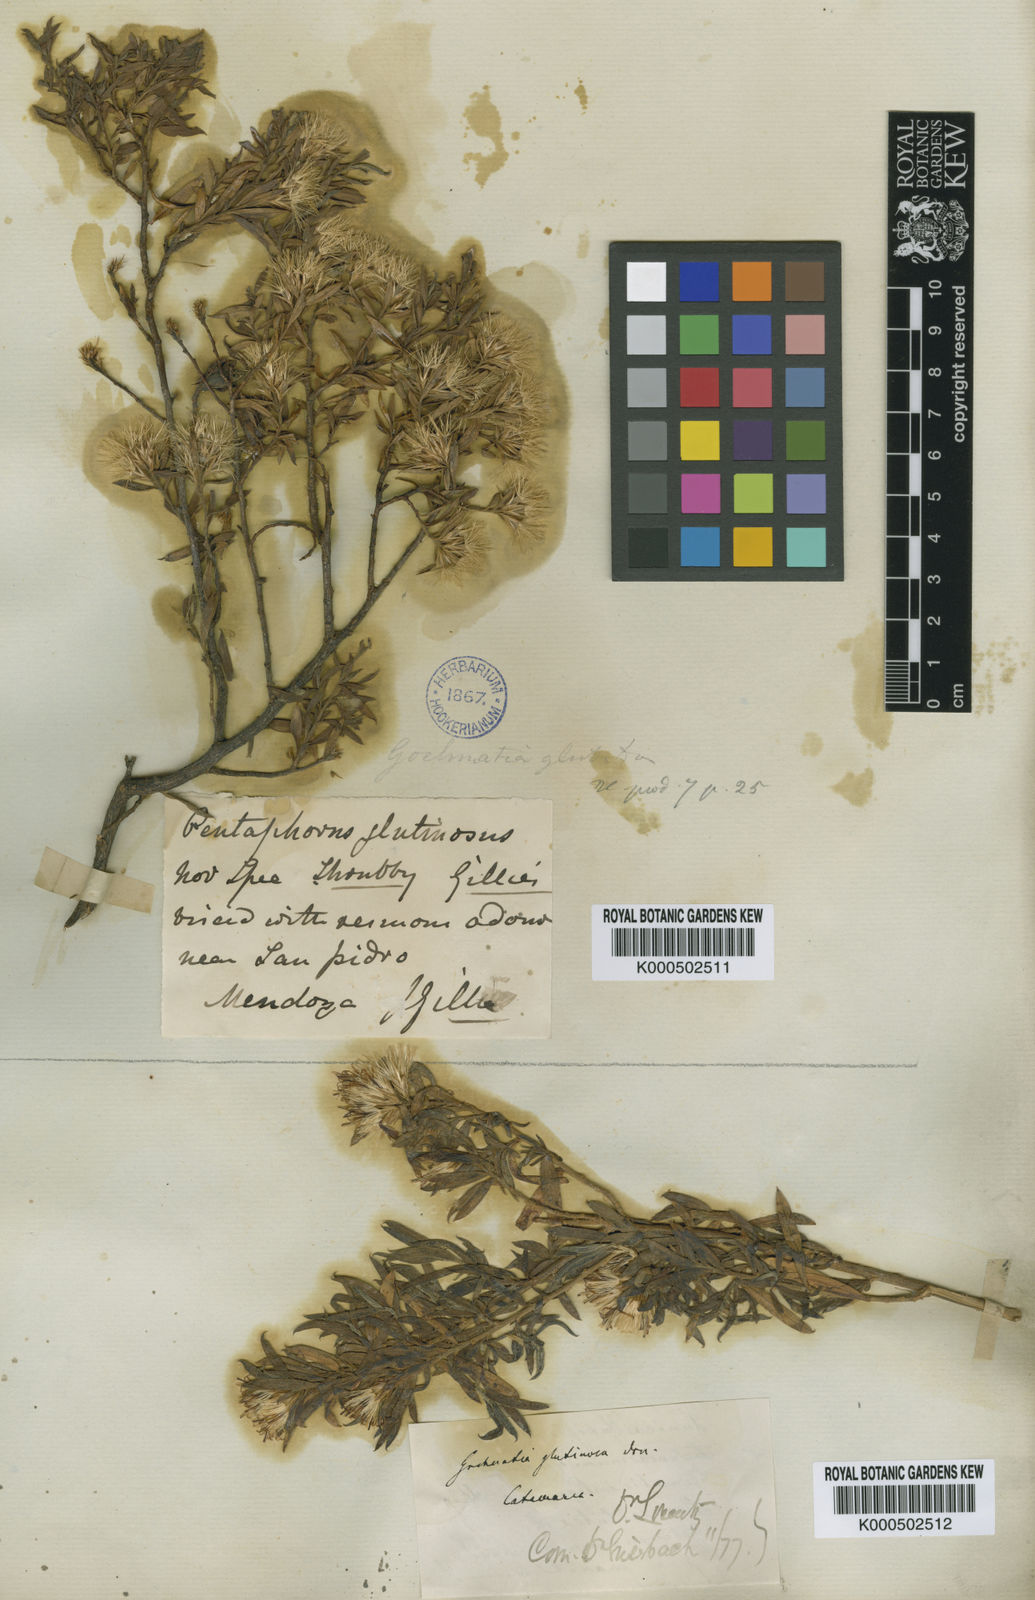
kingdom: Plantae
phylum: Tracheophyta
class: Magnoliopsida
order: Asterales
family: Asteraceae
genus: Gochnatia
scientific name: Gochnatia glutinosa
